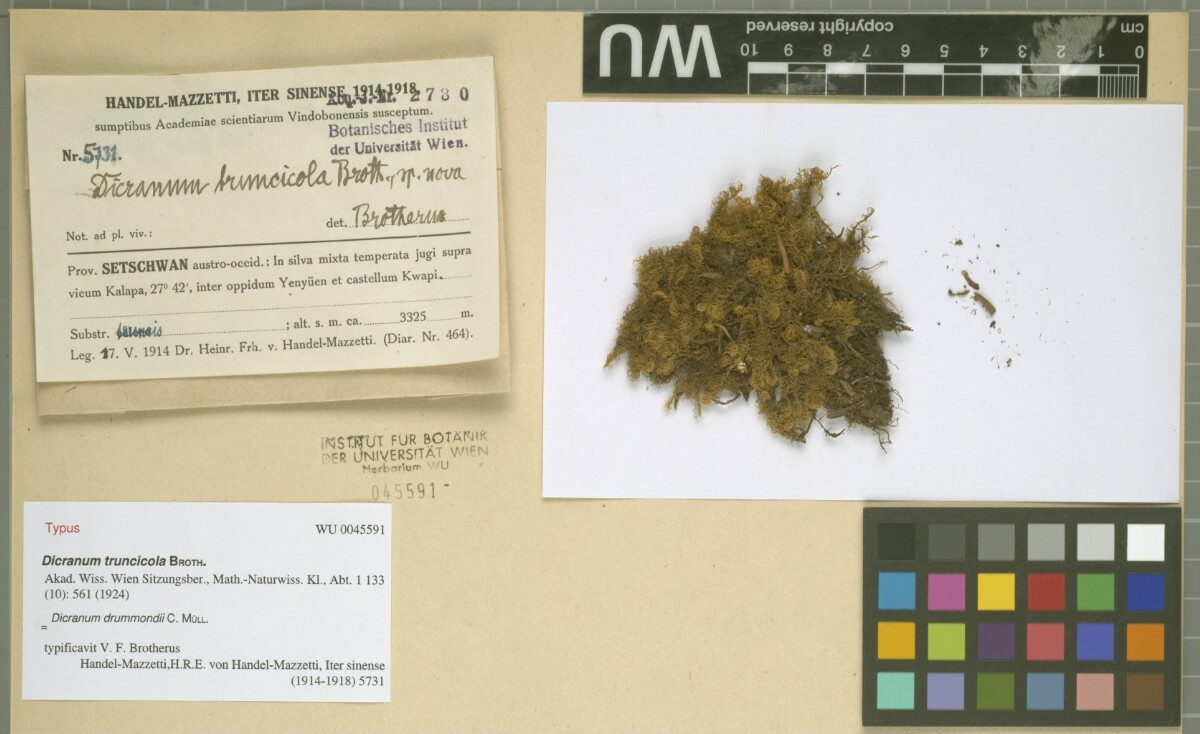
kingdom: Plantae
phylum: Bryophyta
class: Bryopsida
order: Dicranales
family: Dicranaceae
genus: Dicranum
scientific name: Dicranum drummondii
